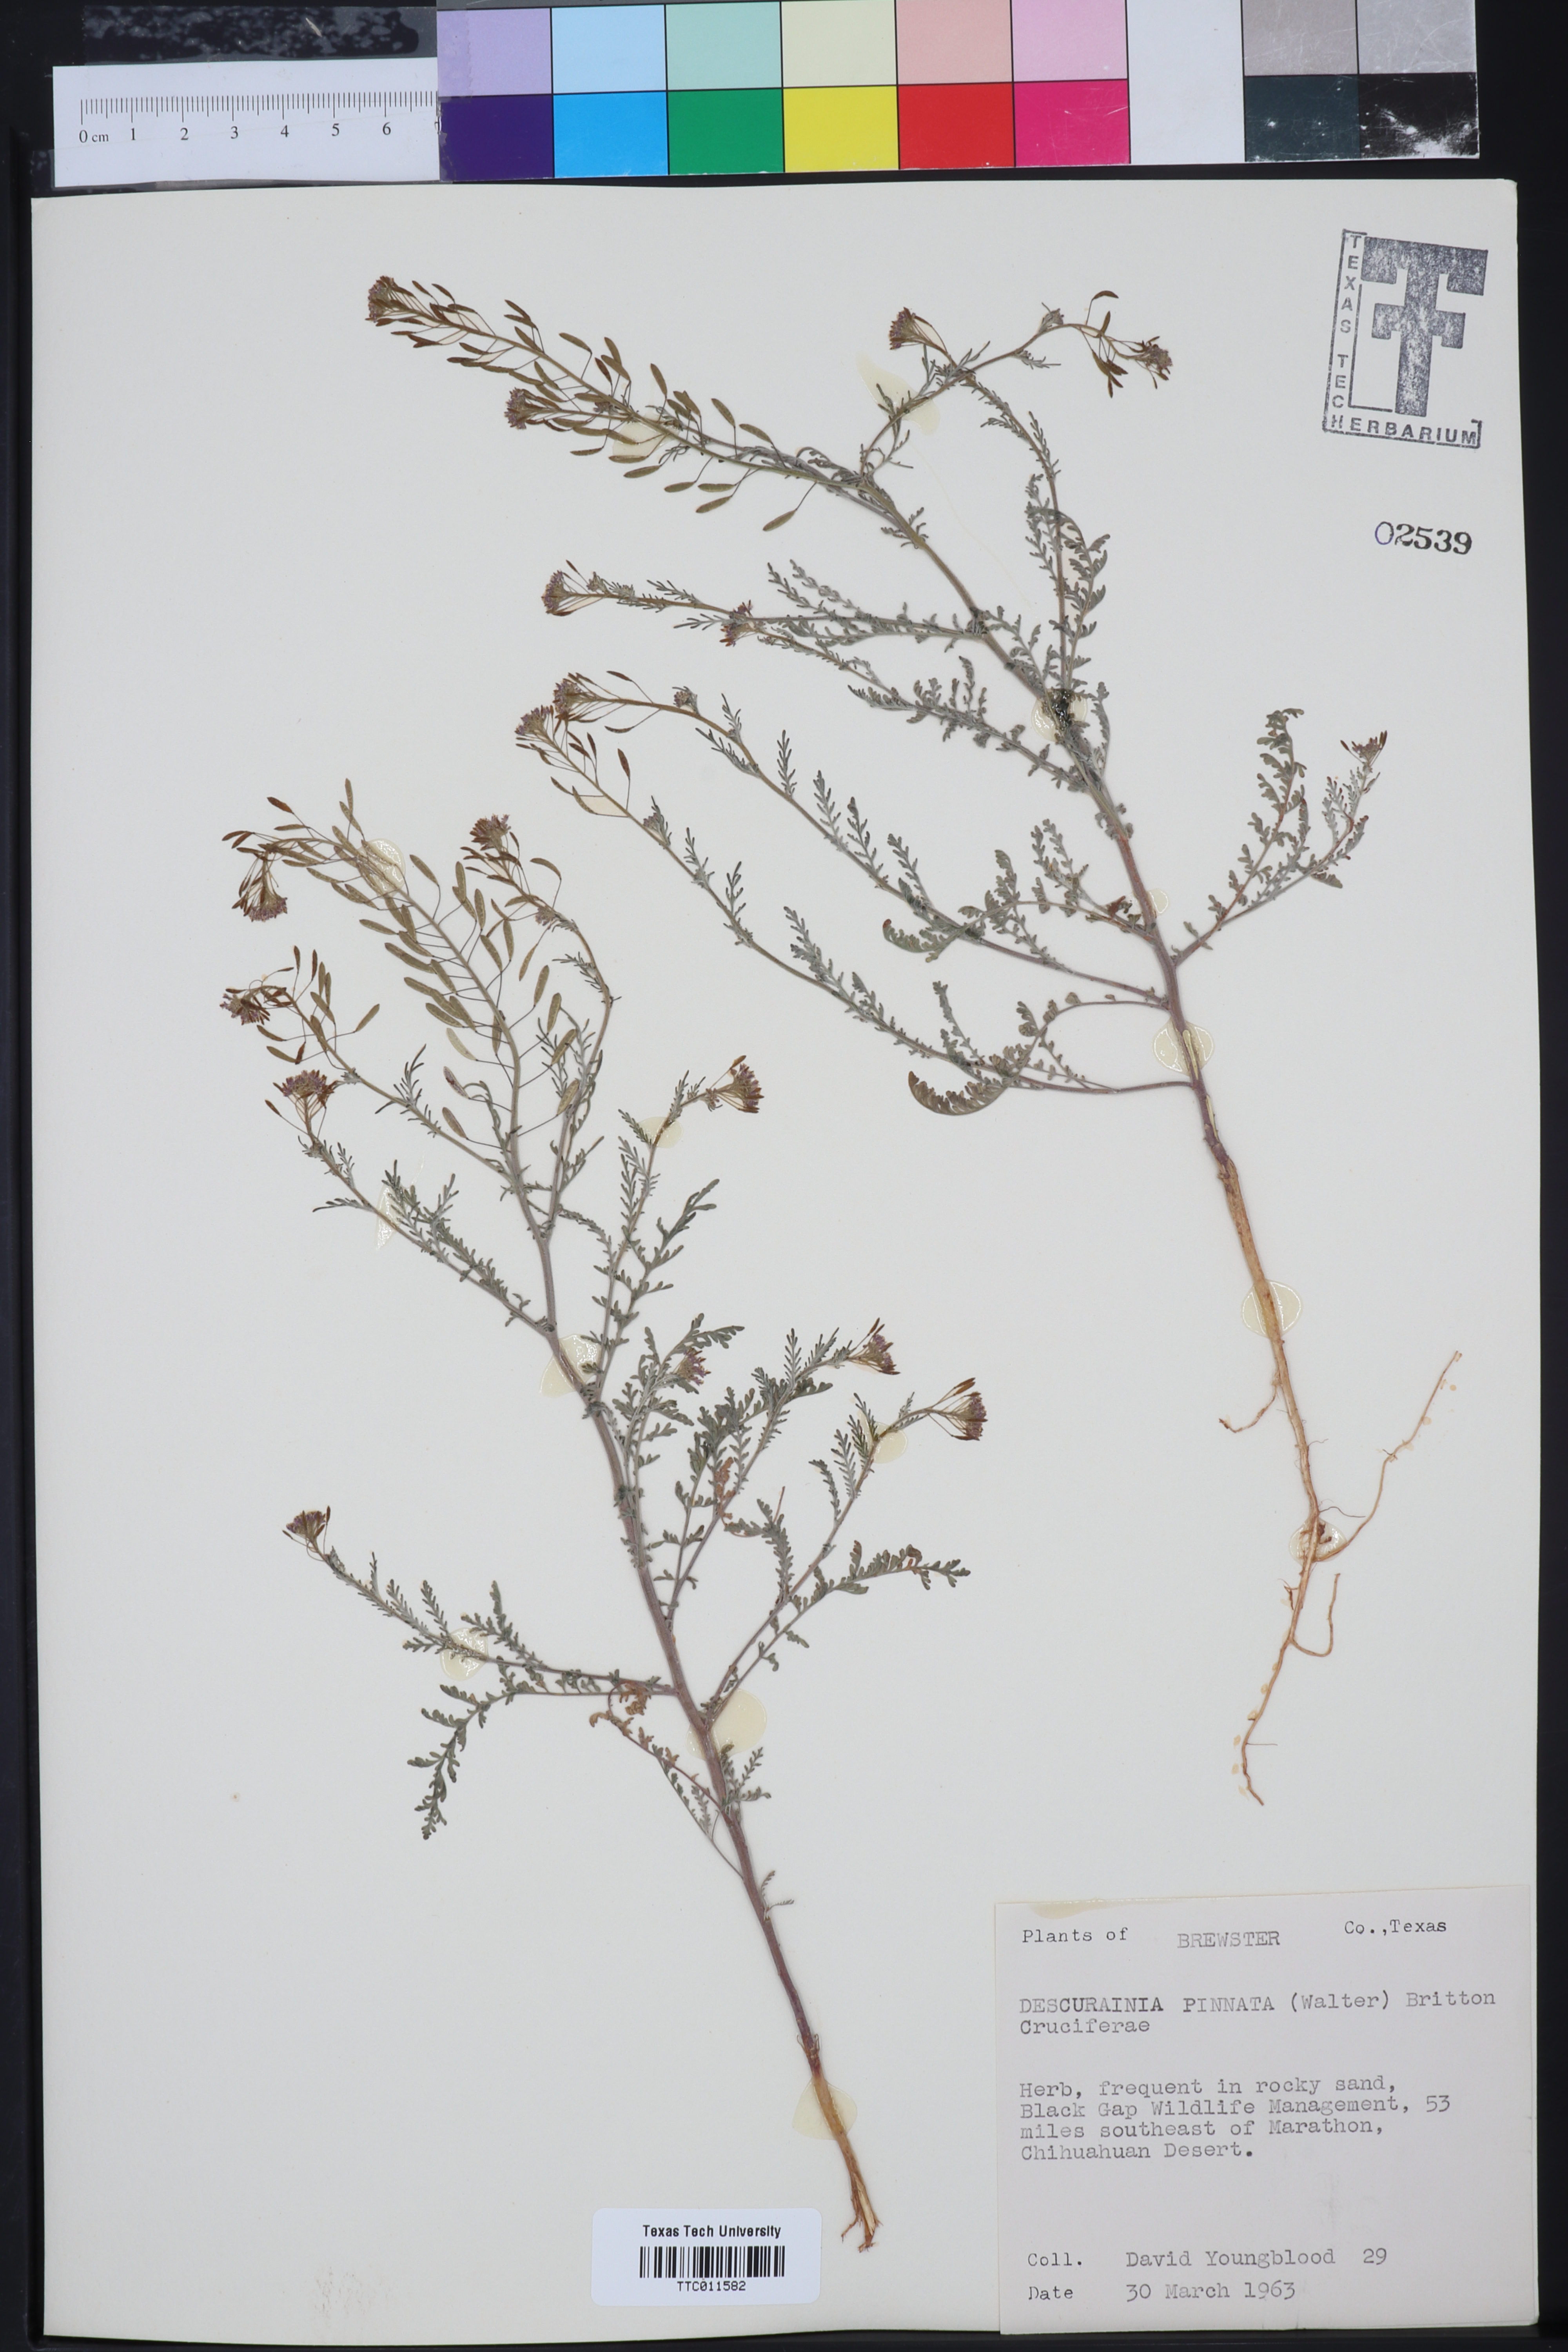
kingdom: Plantae
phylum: Tracheophyta
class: Magnoliopsida
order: Brassicales
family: Brassicaceae
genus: Descurainia
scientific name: Descurainia pinnata
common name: Western tansy mustard
